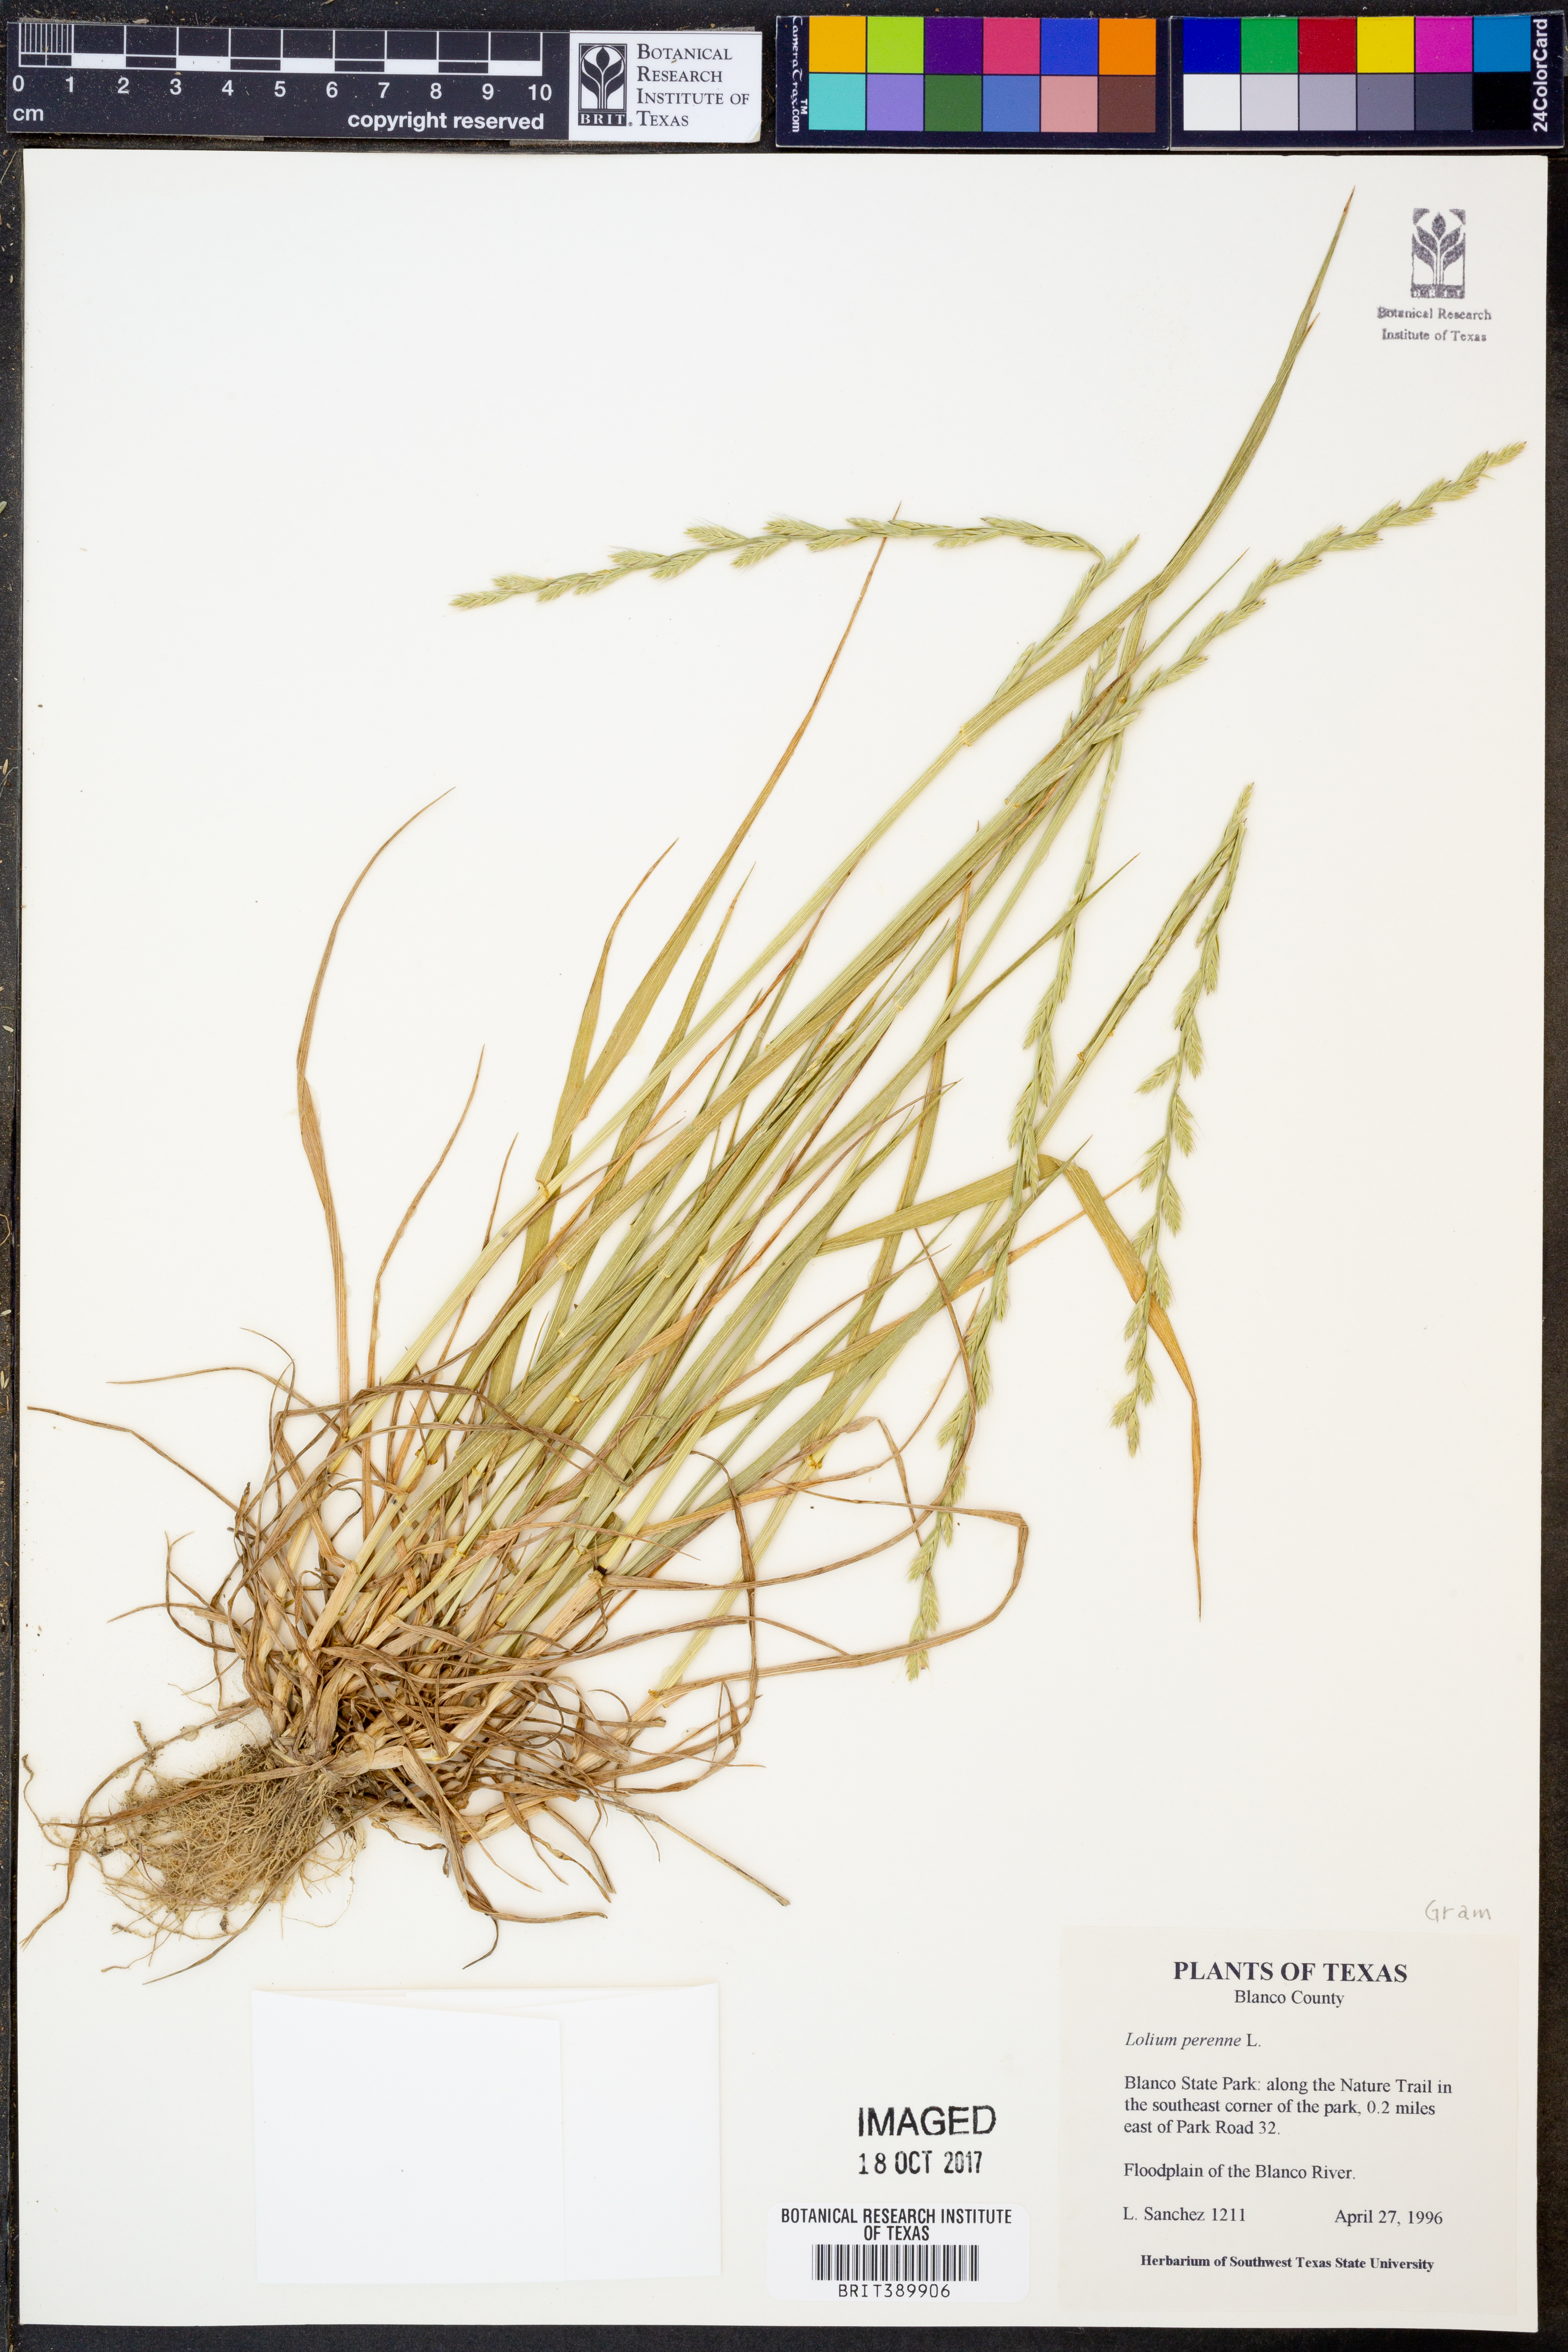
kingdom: Plantae
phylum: Tracheophyta
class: Liliopsida
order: Poales
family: Poaceae
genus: Lolium
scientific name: Lolium perenne
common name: Perennial ryegrass
